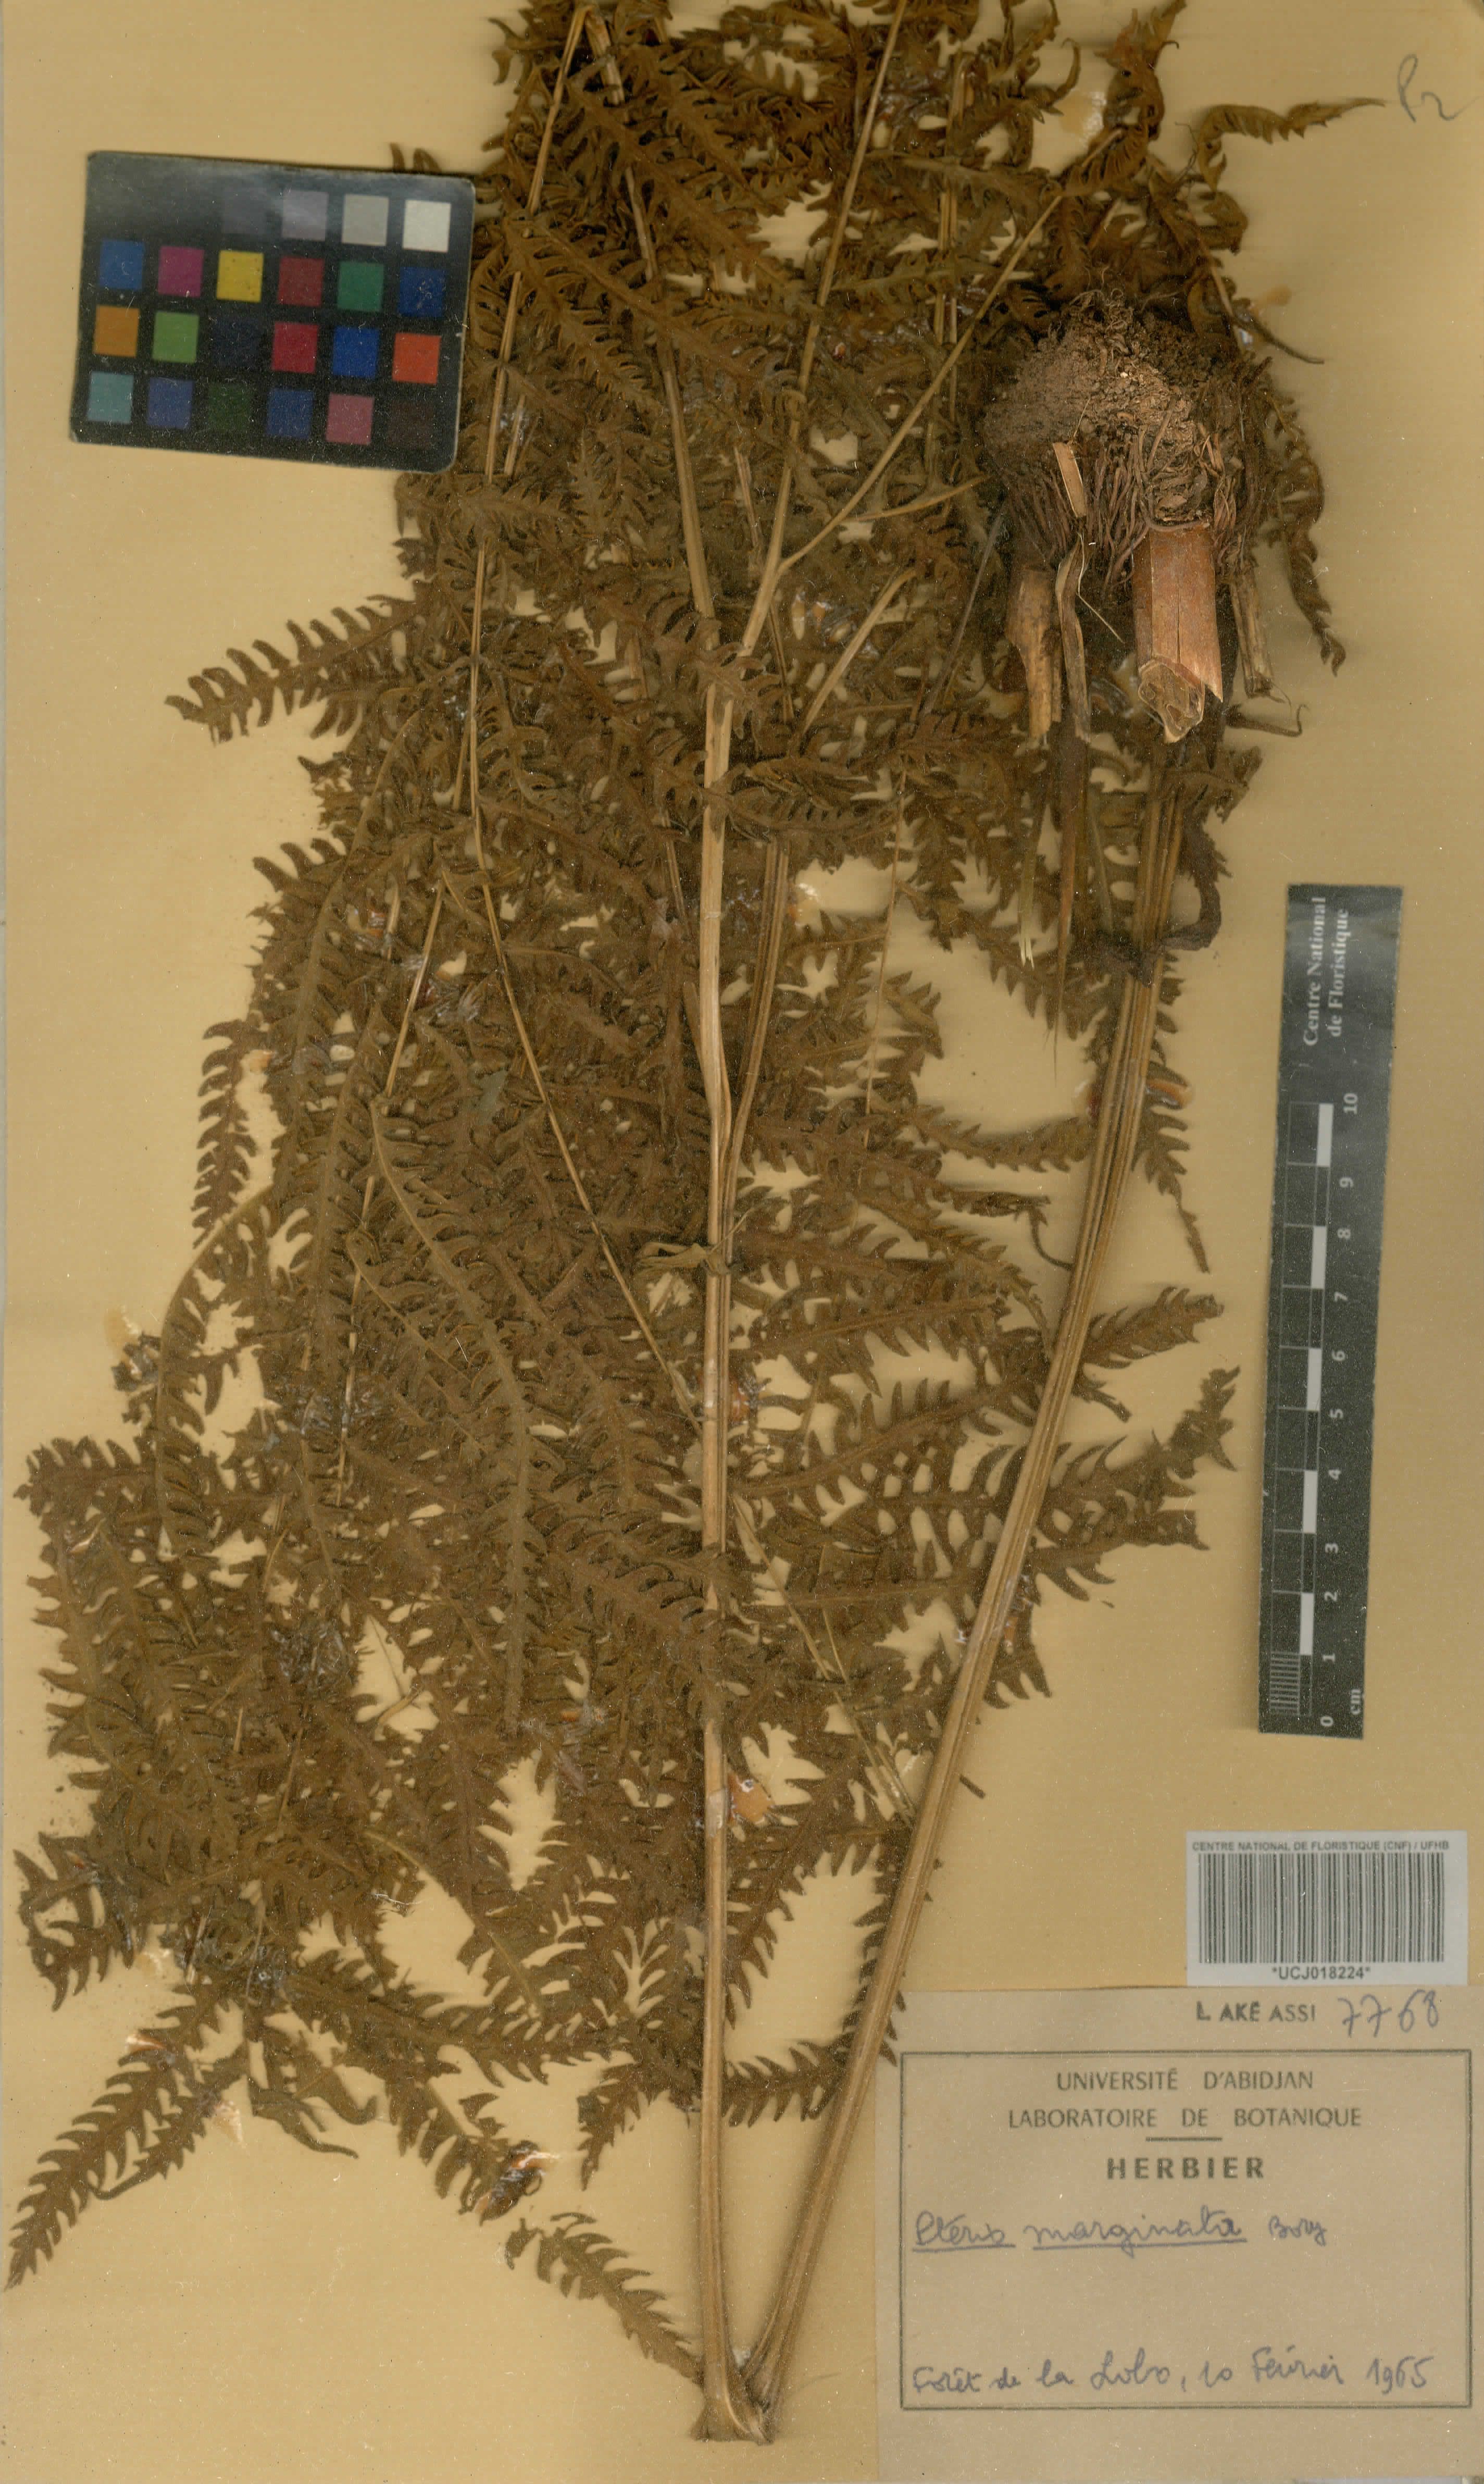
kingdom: Plantae
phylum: Tracheophyta
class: Polypodiopsida
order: Polypodiales
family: Pteridaceae
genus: Pteris
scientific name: Pteris tripartita
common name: Giant brake
